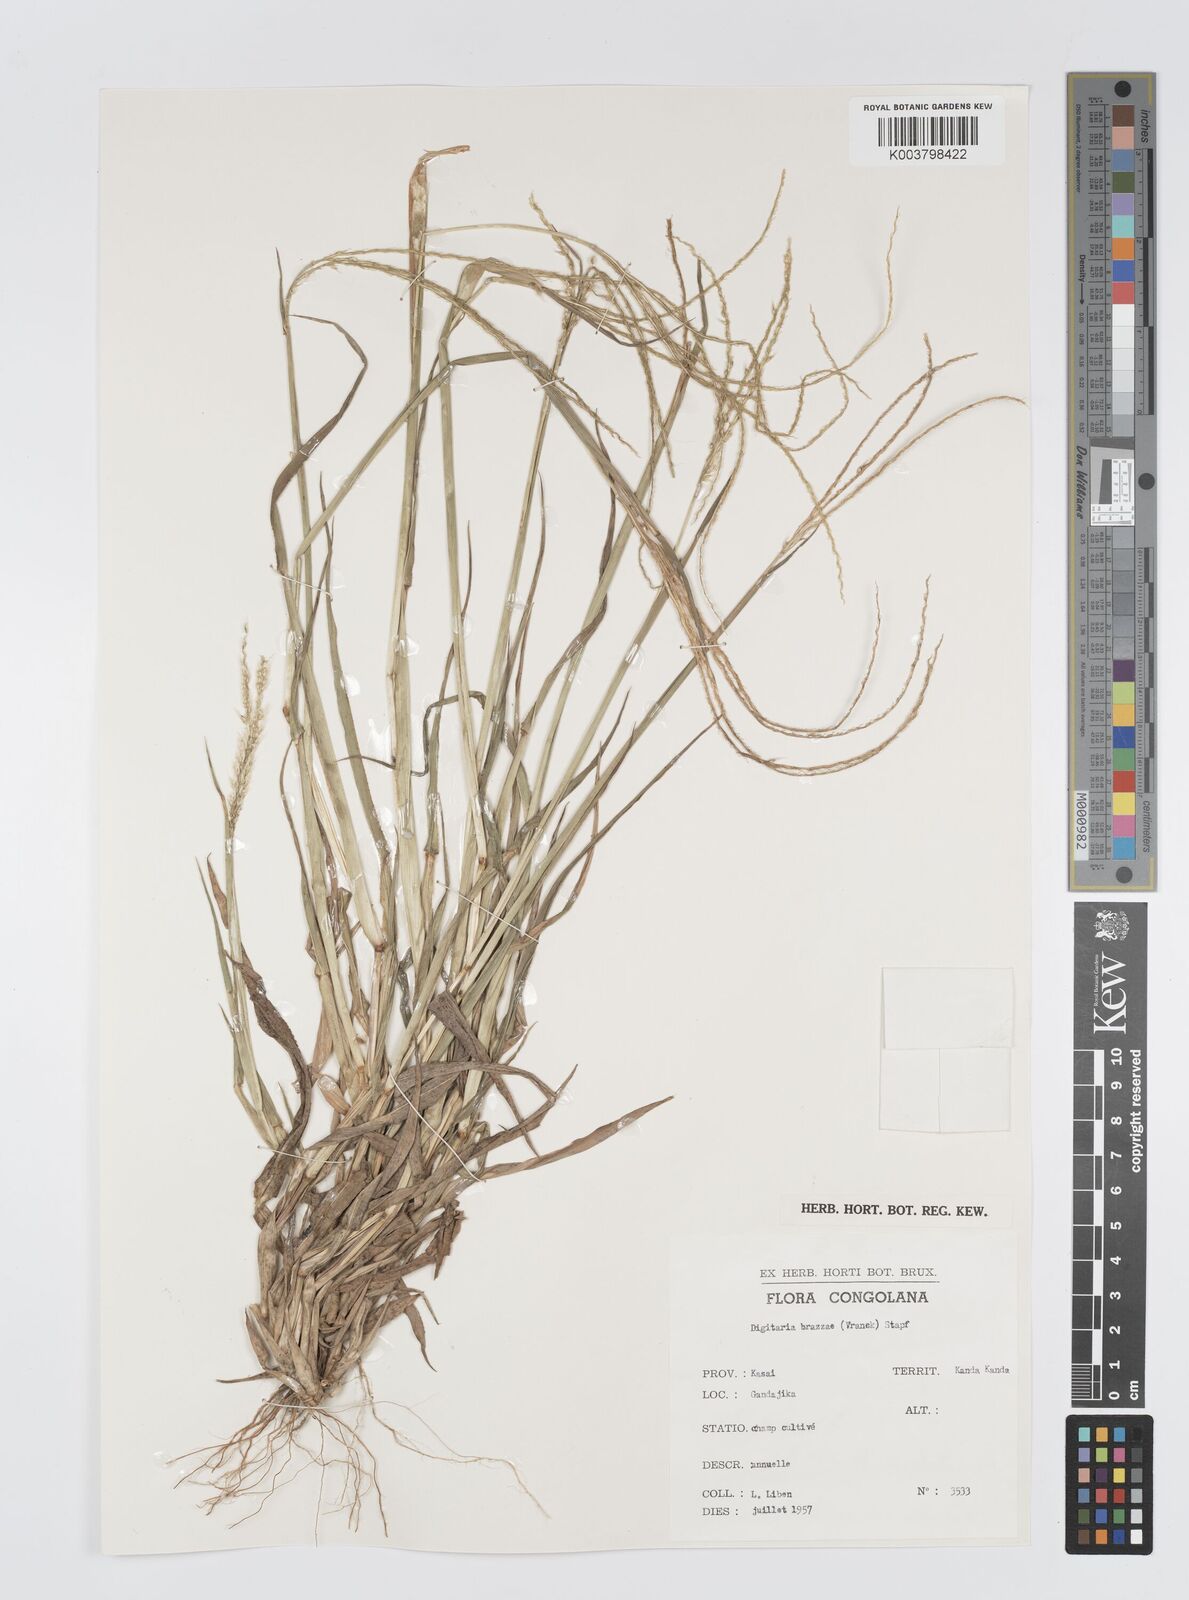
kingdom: Plantae
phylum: Tracheophyta
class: Liliopsida
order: Poales
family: Poaceae
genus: Digitaria
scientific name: Digitaria gayana
